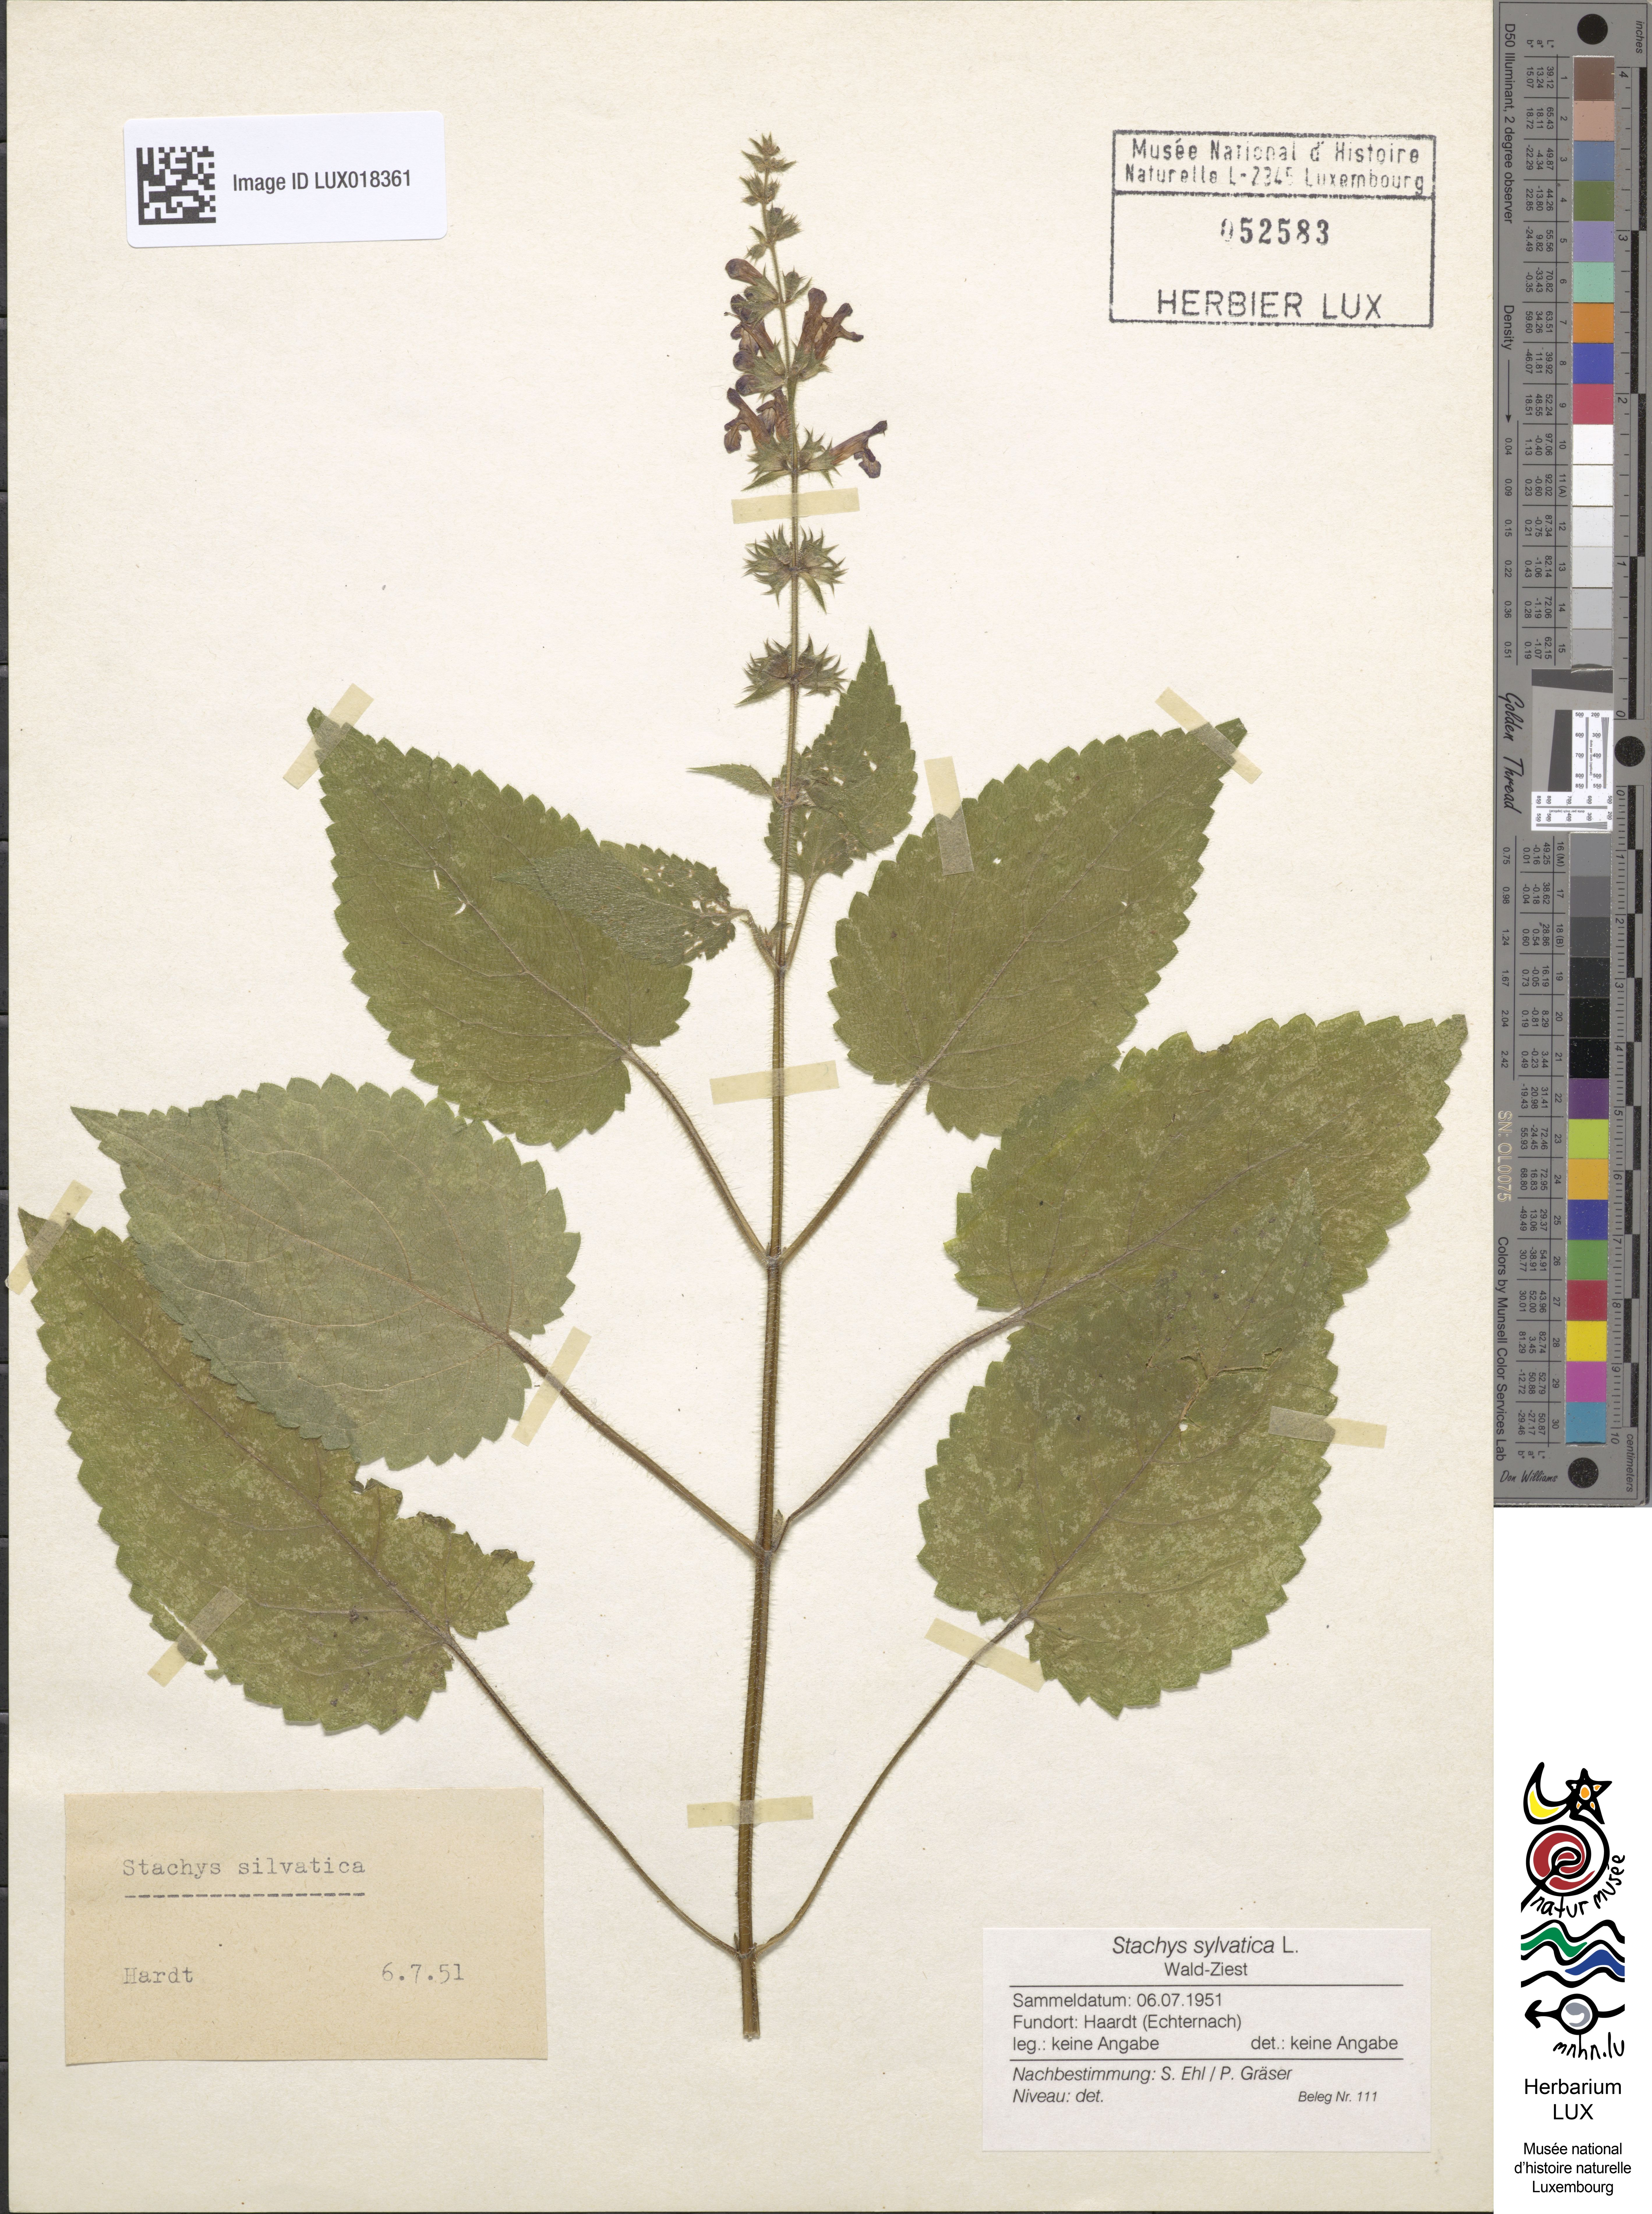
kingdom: Plantae
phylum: Tracheophyta
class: Magnoliopsida
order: Lamiales
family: Lamiaceae
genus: Stachys
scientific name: Stachys sylvatica
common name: Hedge woundwort
